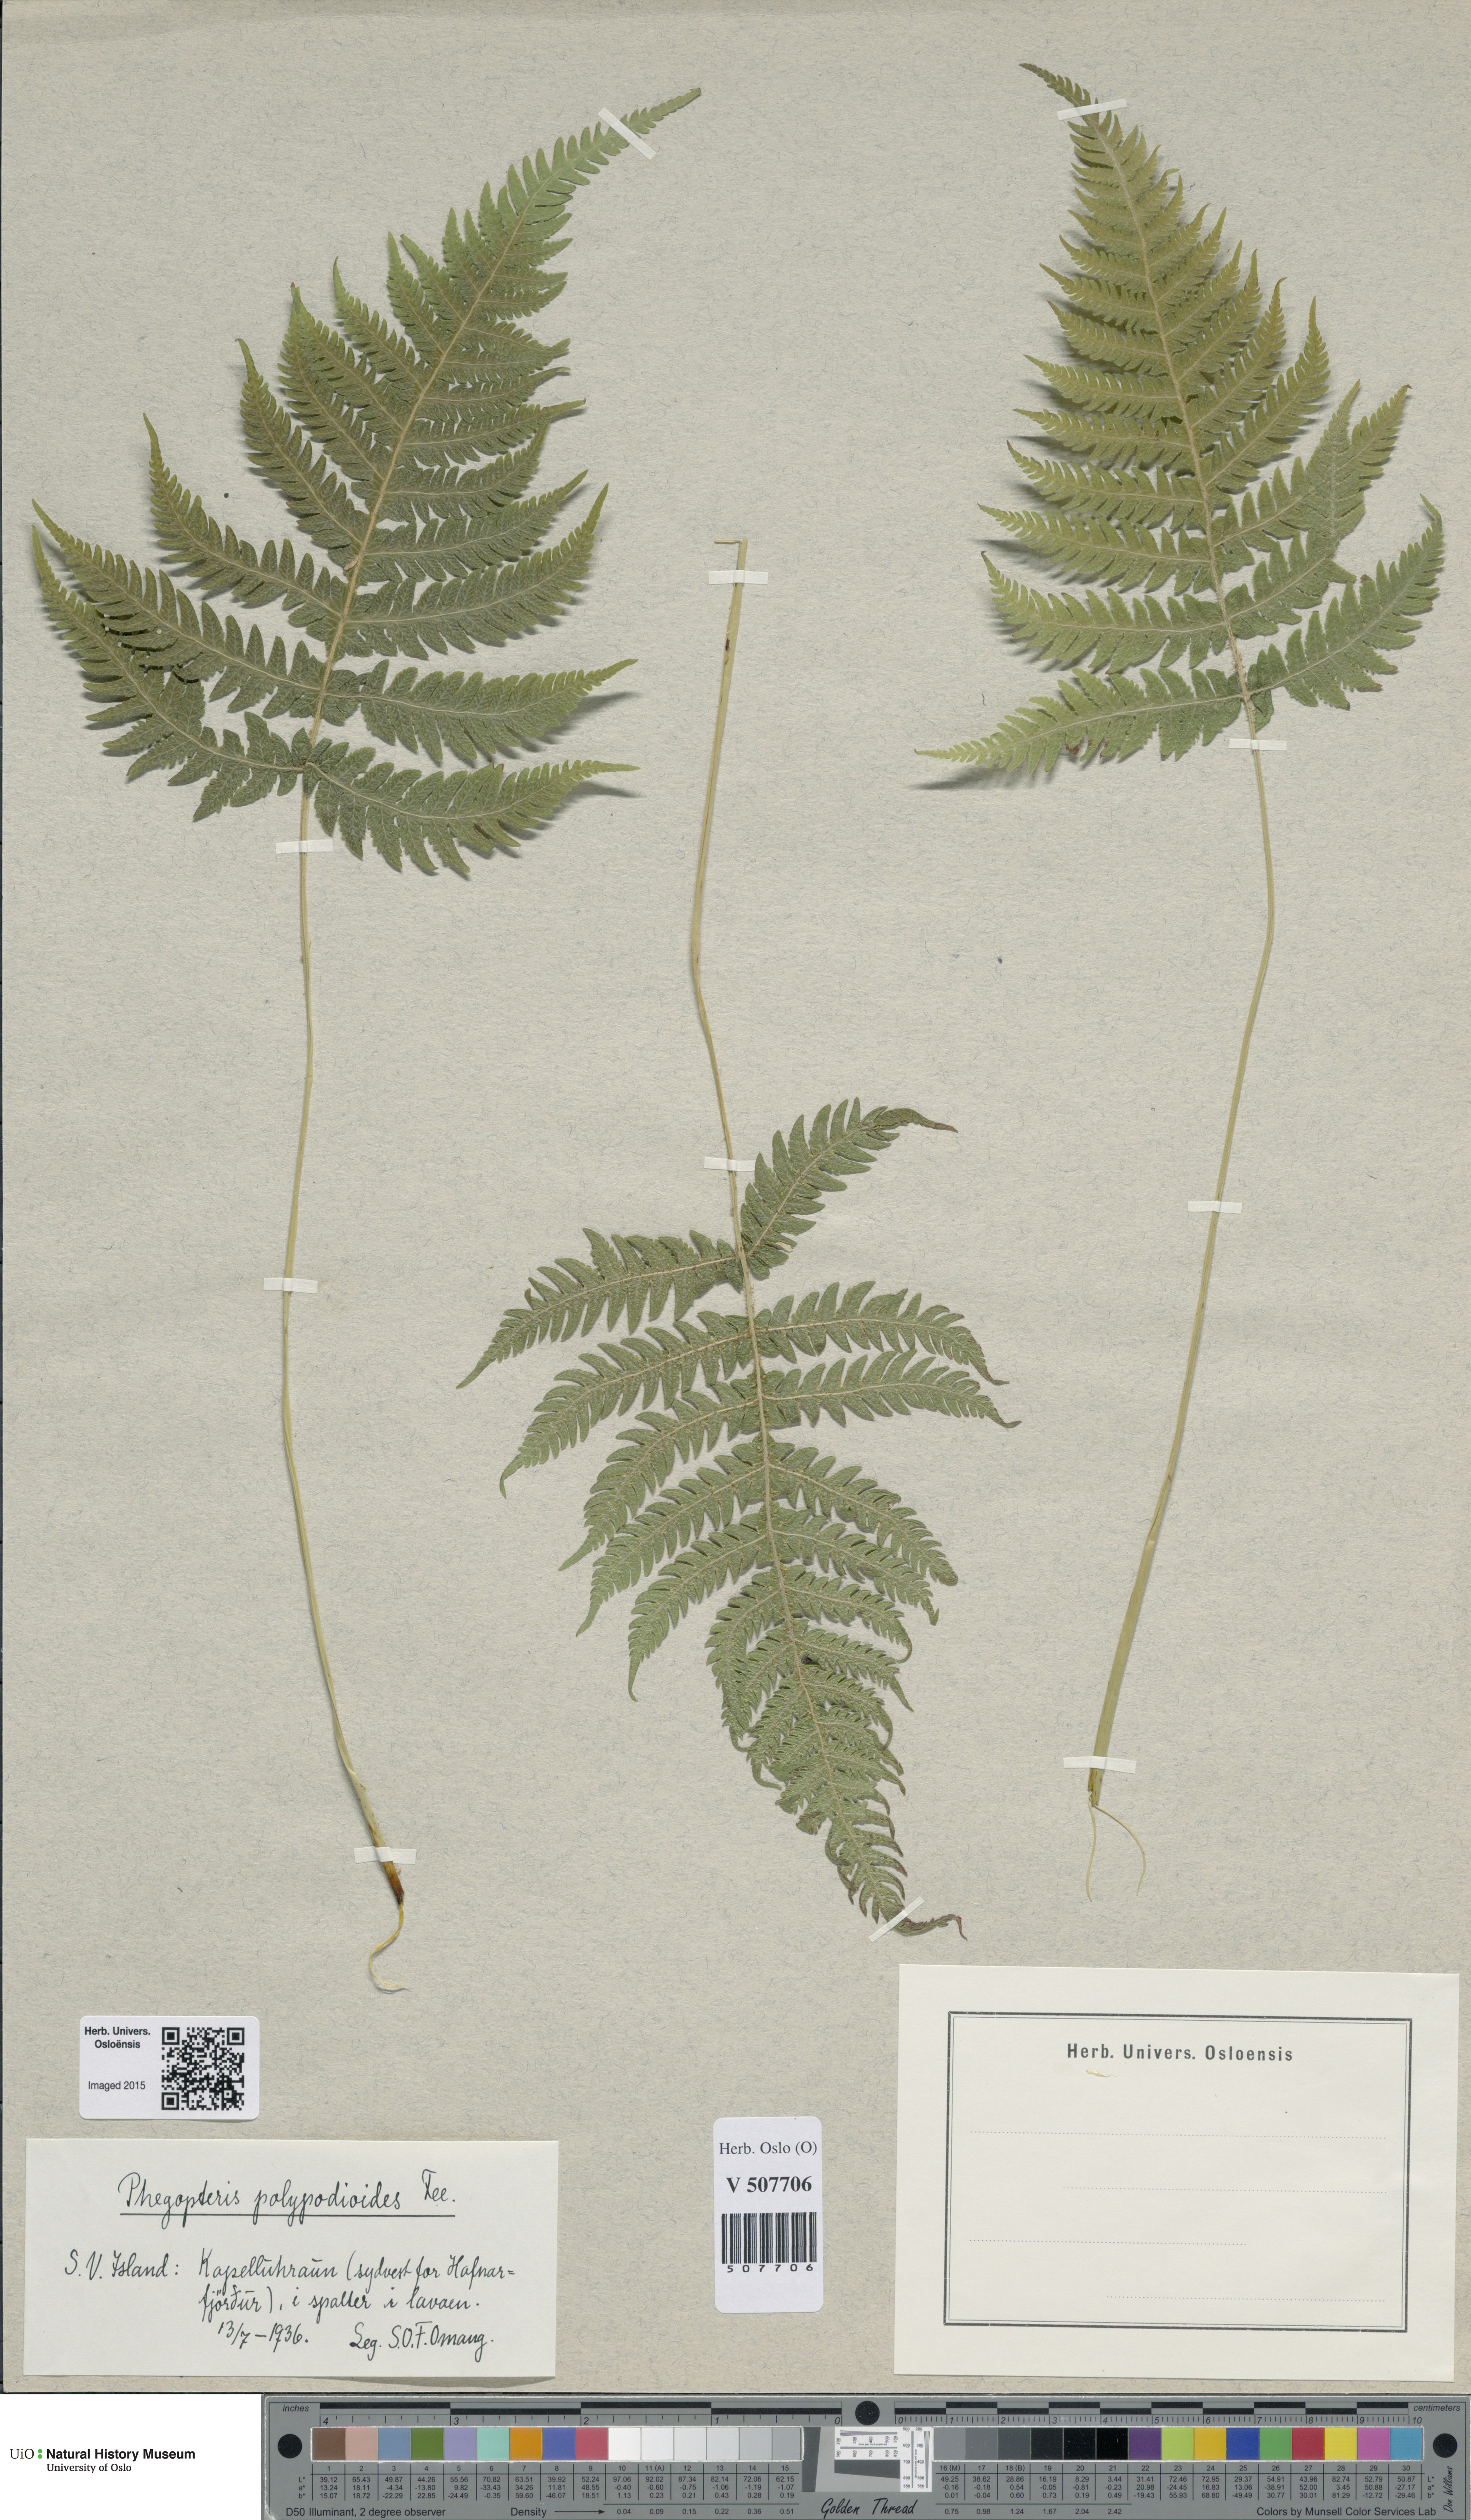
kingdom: Plantae
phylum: Tracheophyta
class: Polypodiopsida
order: Polypodiales
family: Thelypteridaceae
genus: Phegopteris
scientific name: Phegopteris connectilis
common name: Beech fern
